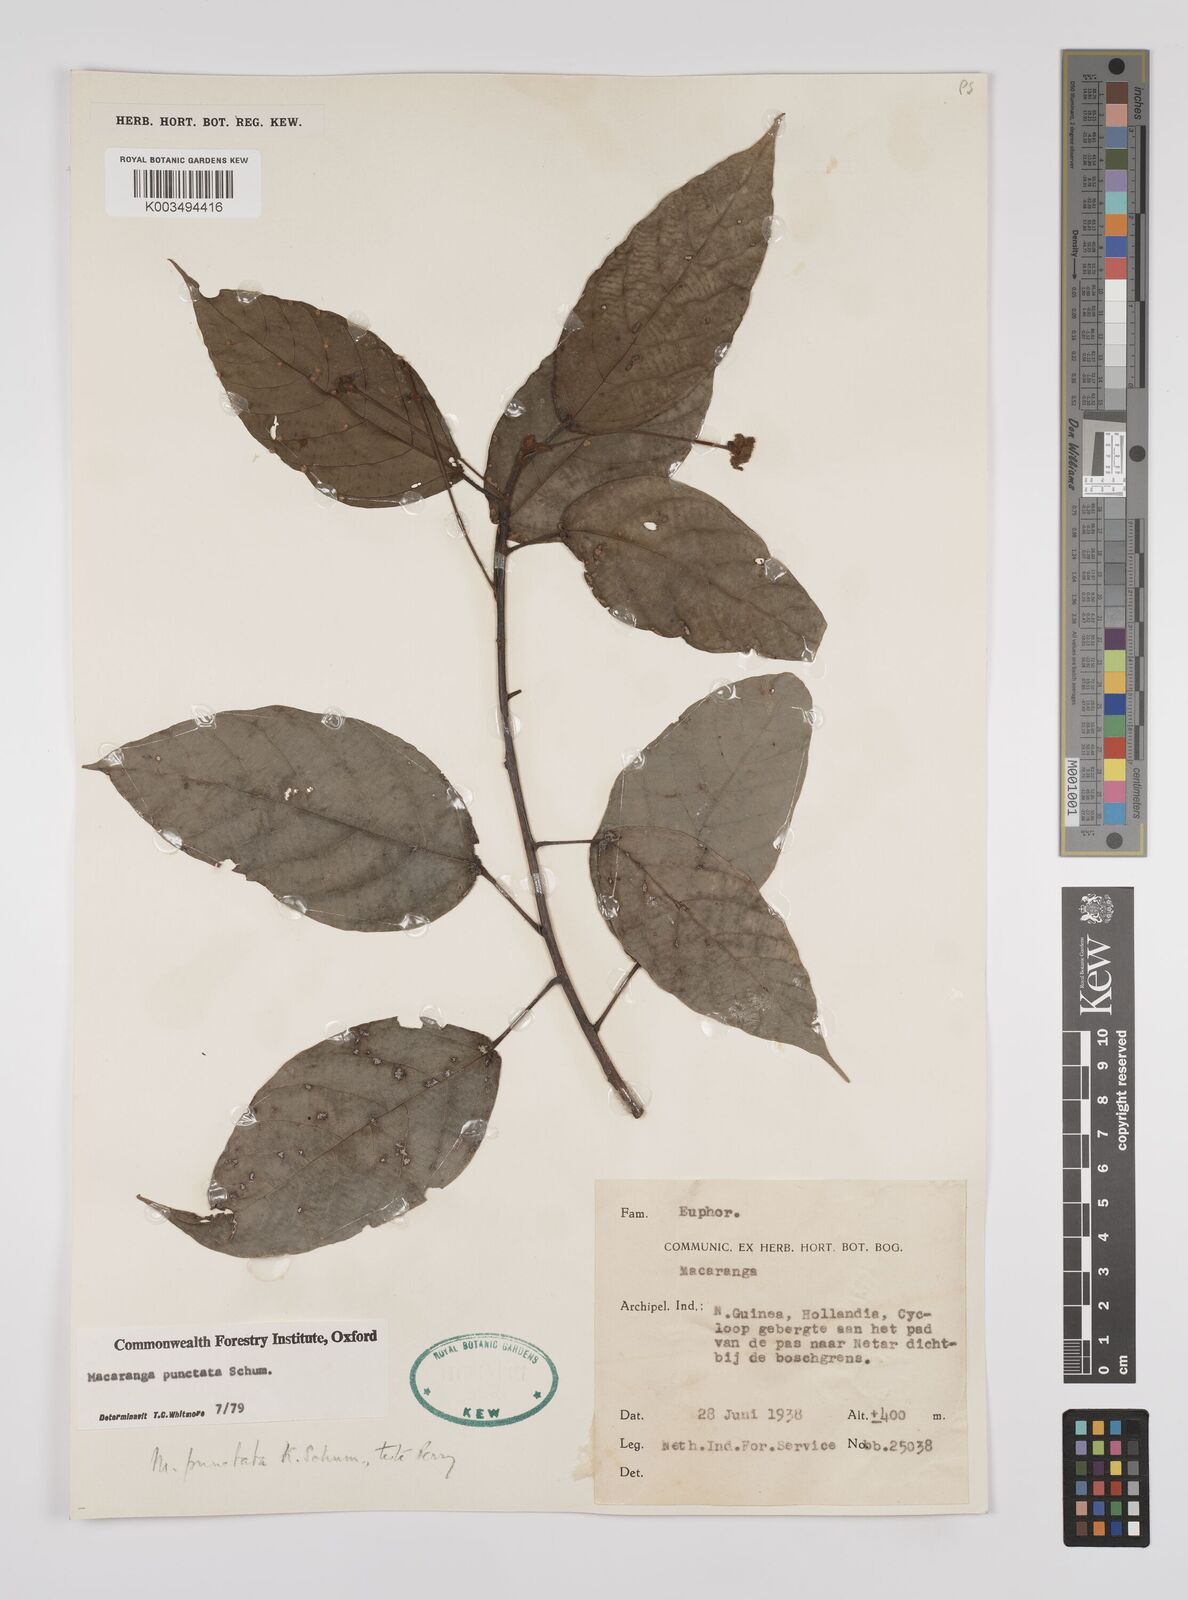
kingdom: Plantae
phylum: Tracheophyta
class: Magnoliopsida
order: Malpighiales
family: Euphorbiaceae
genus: Macaranga
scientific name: Macaranga punctata
